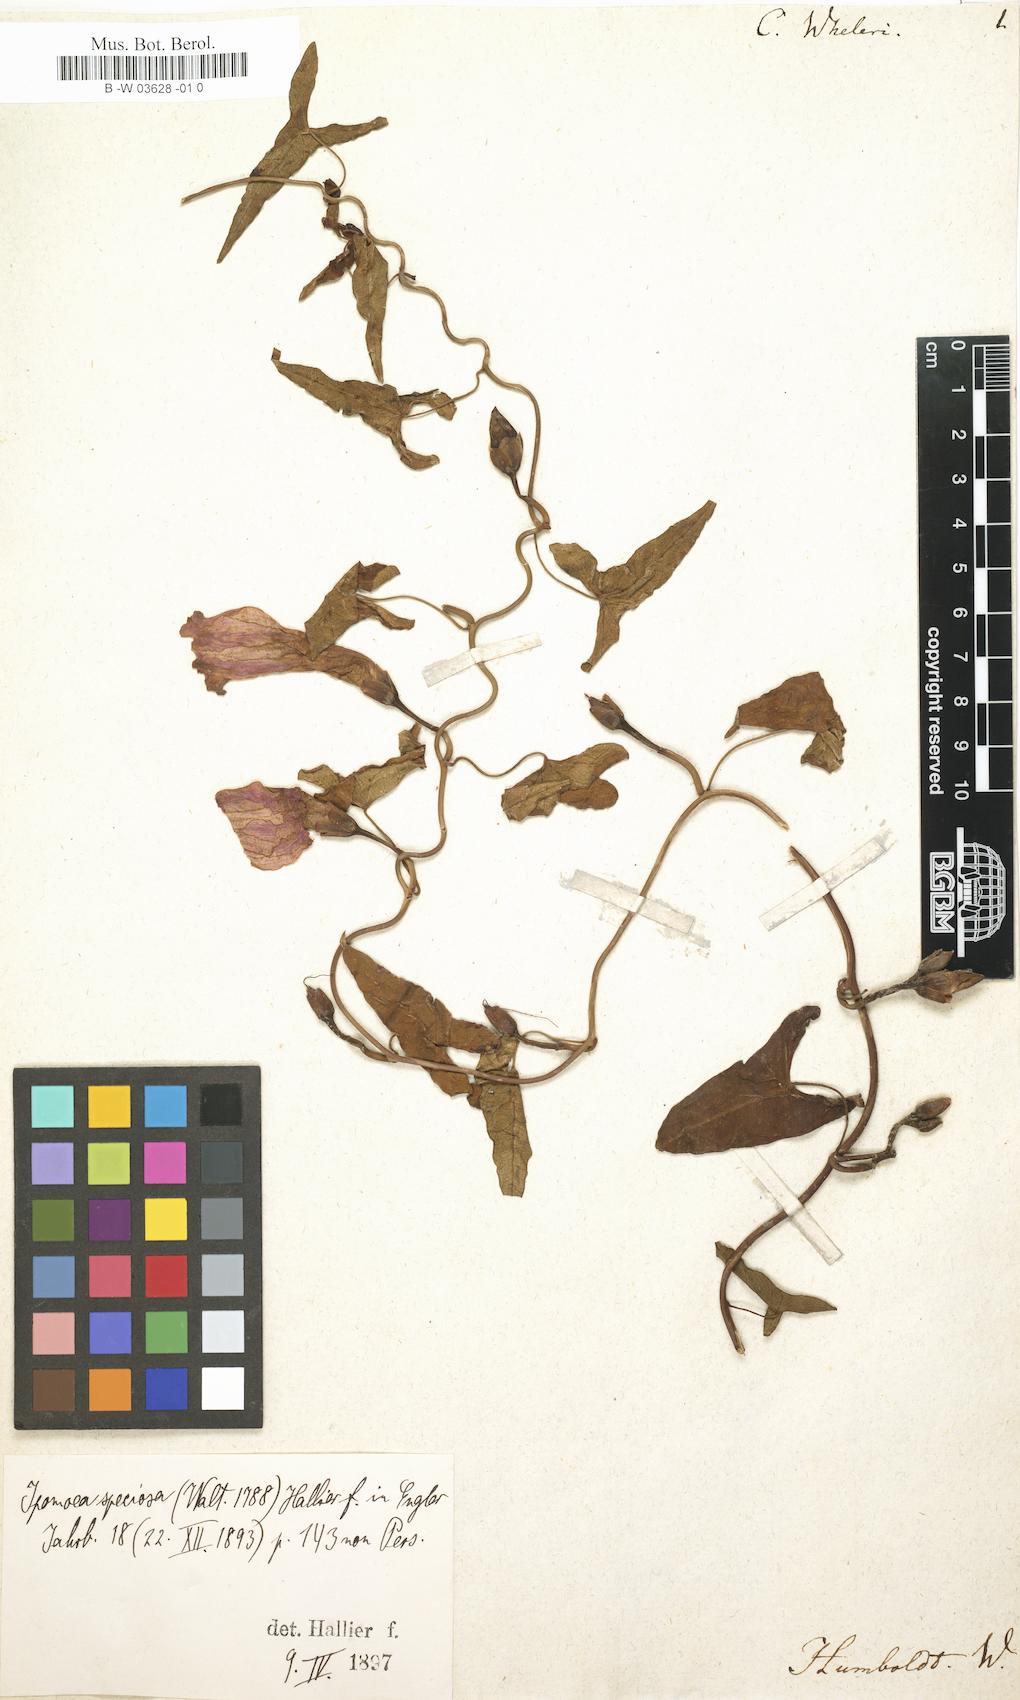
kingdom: Plantae
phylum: Tracheophyta
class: Magnoliopsida
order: Solanales
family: Convolvulaceae
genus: Ipomoea
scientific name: Ipomoea sagittata
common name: Saltmarsh morning glory
